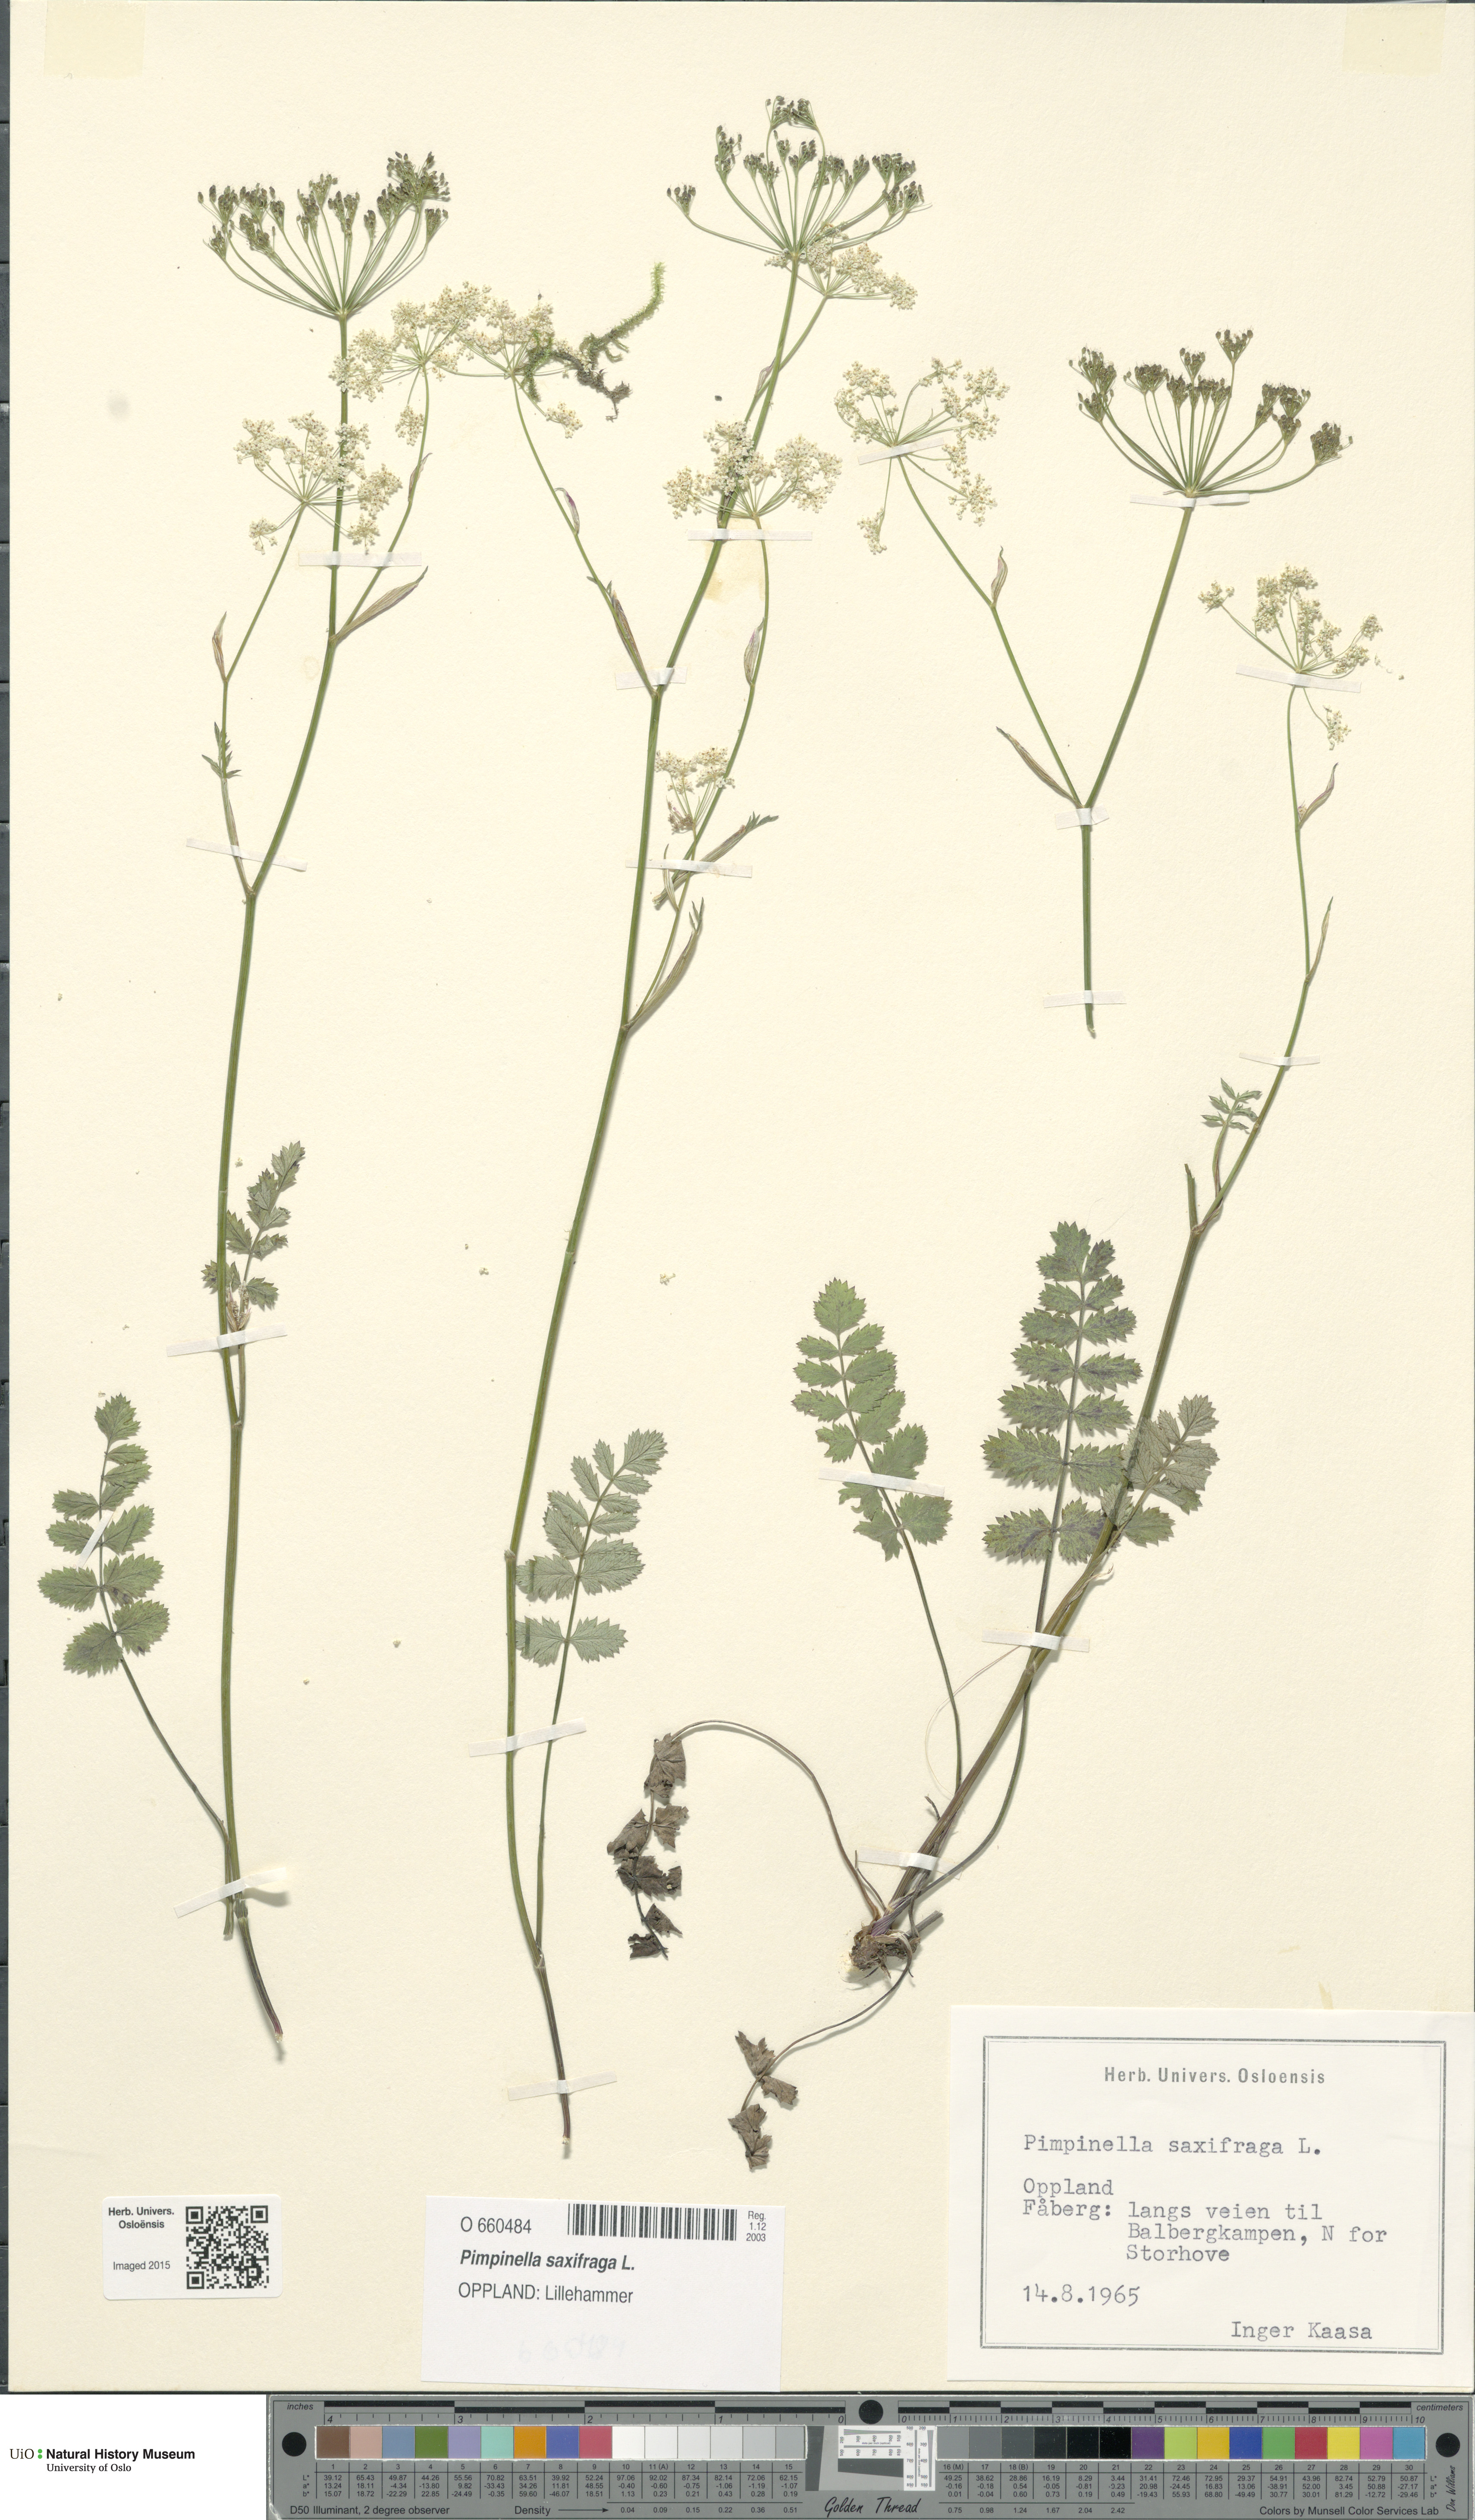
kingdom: Plantae
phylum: Tracheophyta
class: Magnoliopsida
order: Apiales
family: Apiaceae
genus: Pimpinella
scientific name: Pimpinella saxifraga
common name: Burnet-saxifrage
